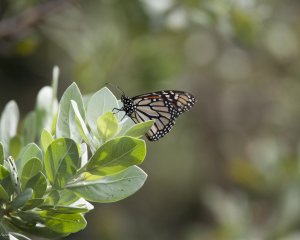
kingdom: Animalia
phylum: Arthropoda
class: Insecta
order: Lepidoptera
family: Nymphalidae
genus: Danaus
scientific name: Danaus plexippus
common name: Monarch
